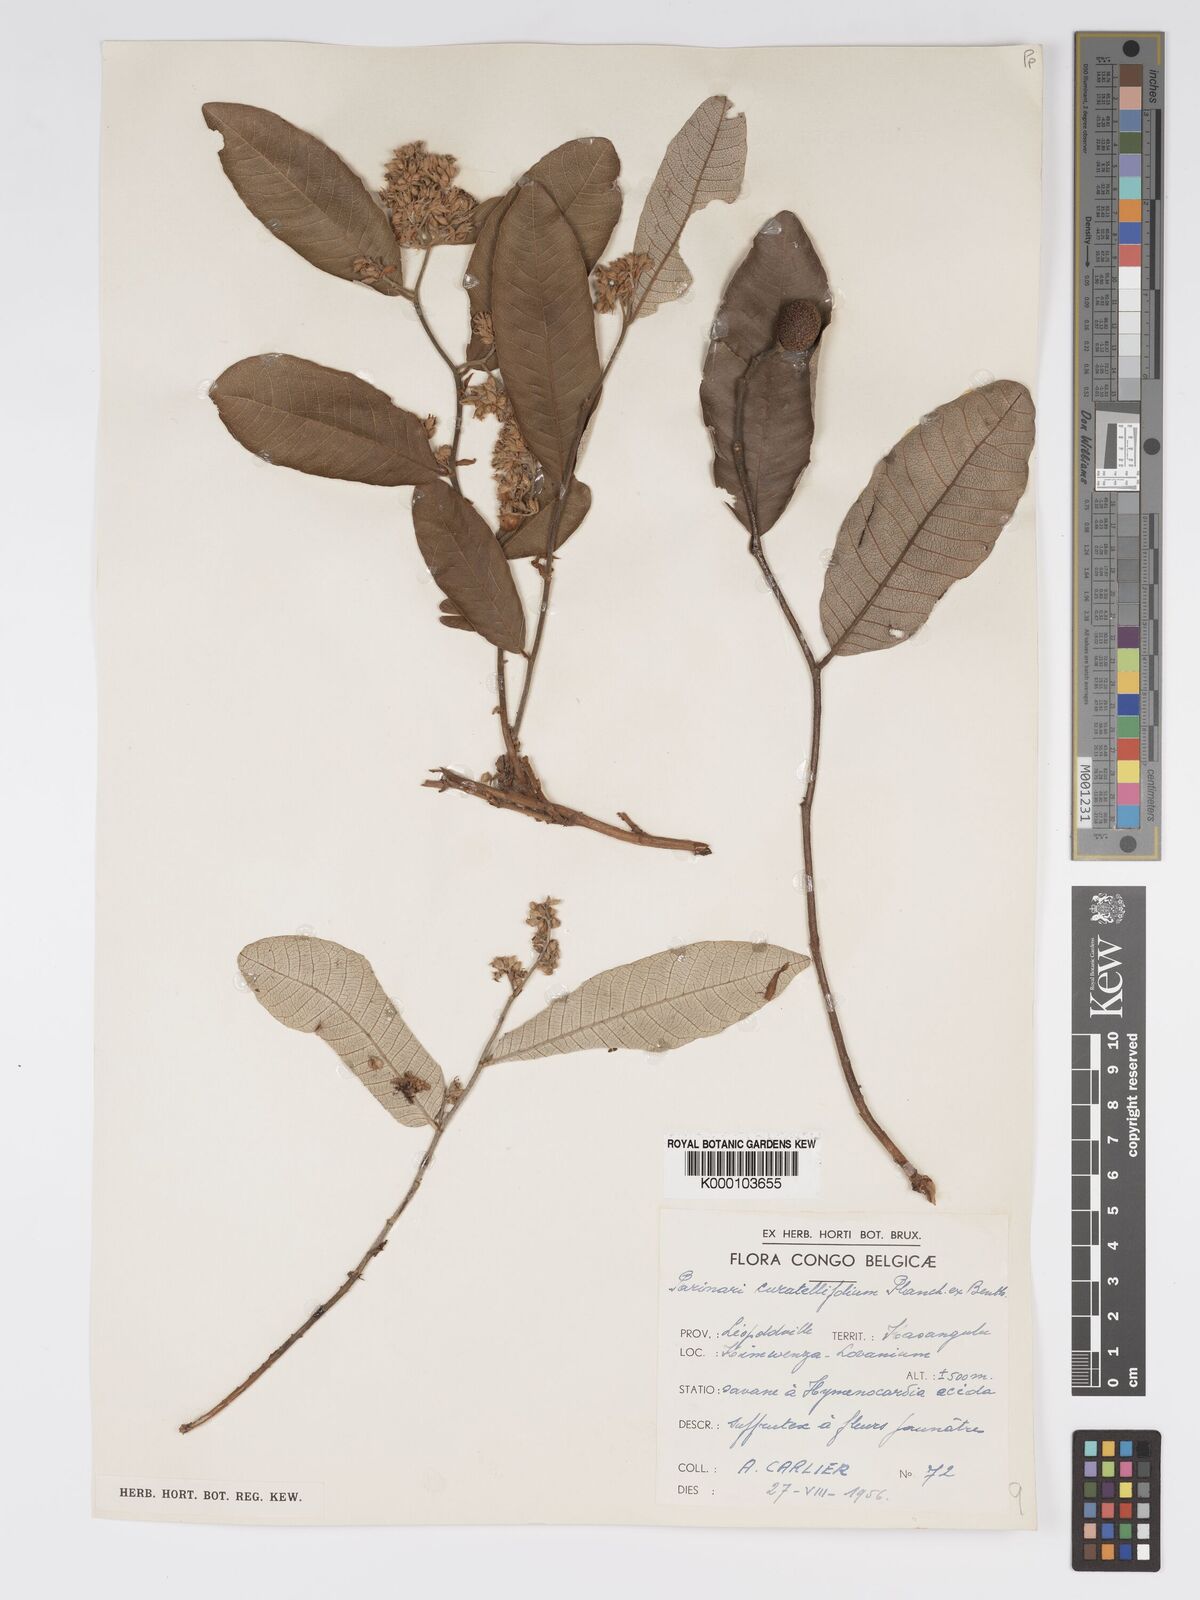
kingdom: Plantae
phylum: Tracheophyta
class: Magnoliopsida
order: Malpighiales
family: Chrysobalanaceae
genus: Parinari
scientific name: Parinari curatellifolia
